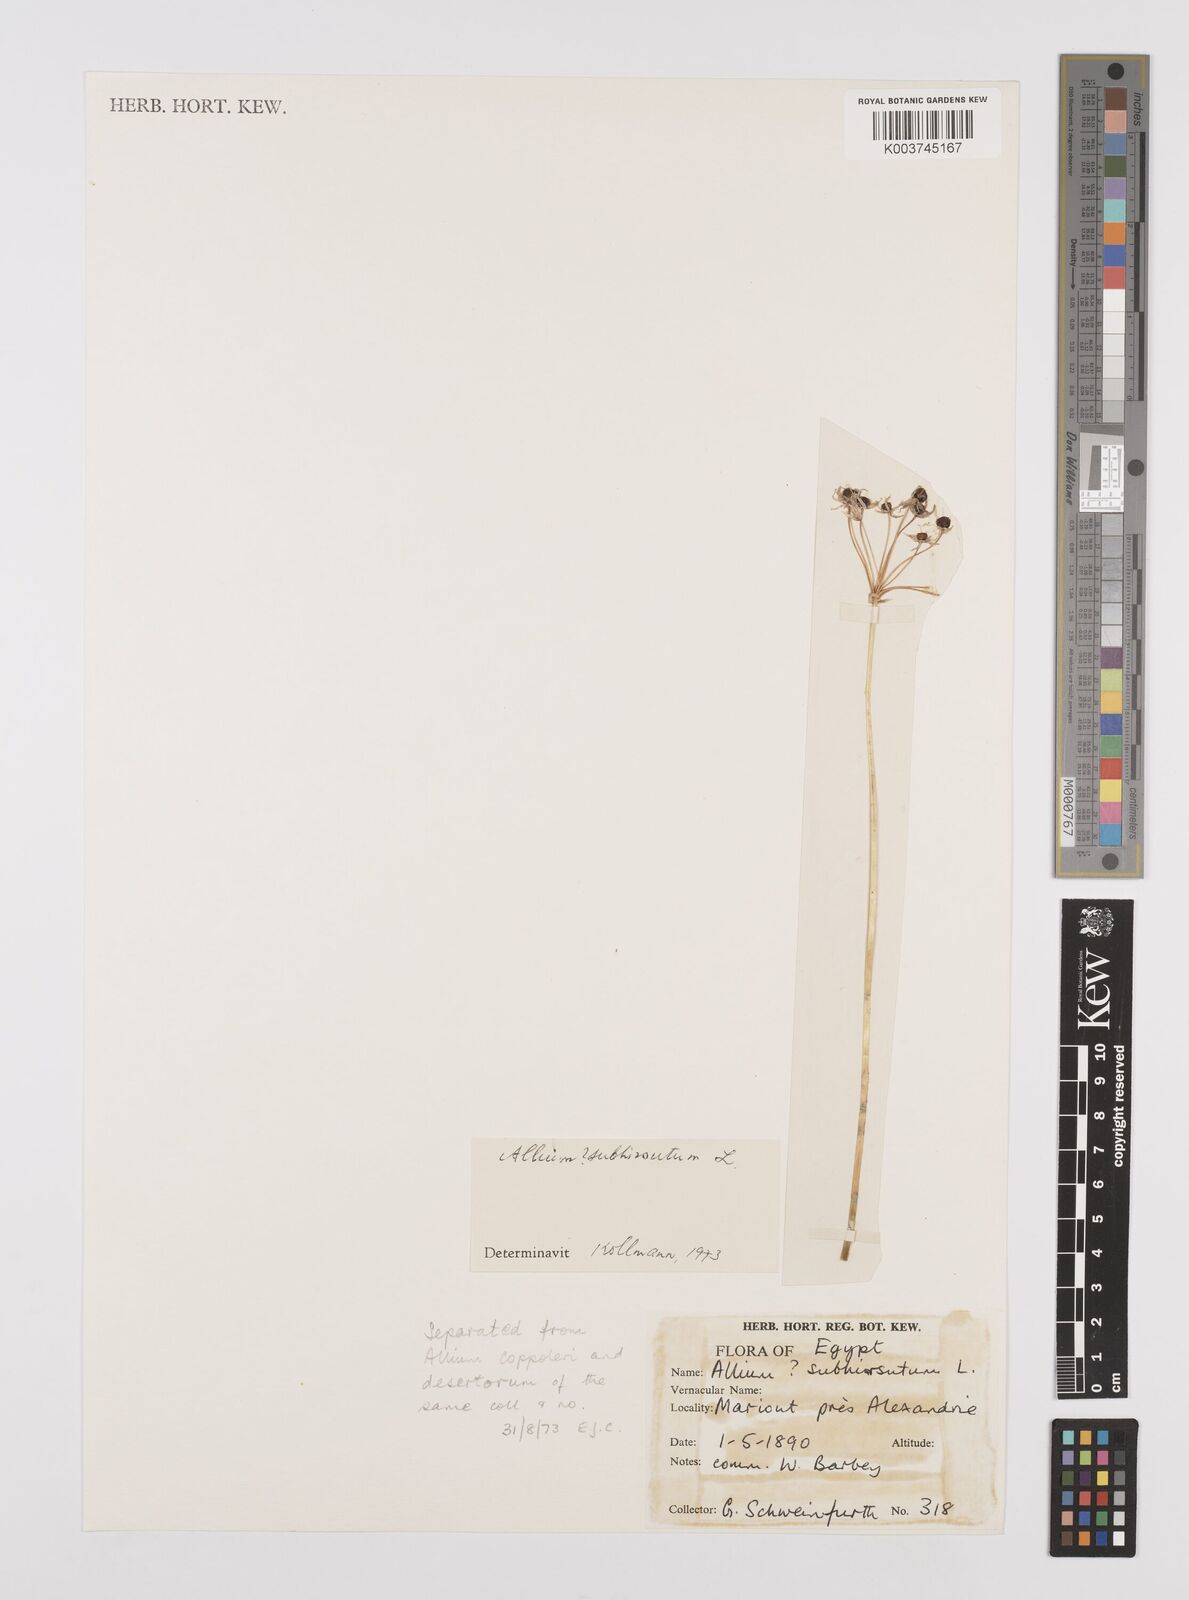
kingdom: Plantae
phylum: Tracheophyta
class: Liliopsida
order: Asparagales
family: Amaryllidaceae
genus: Allium
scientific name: Allium subhirsutum
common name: Hairy garlic
